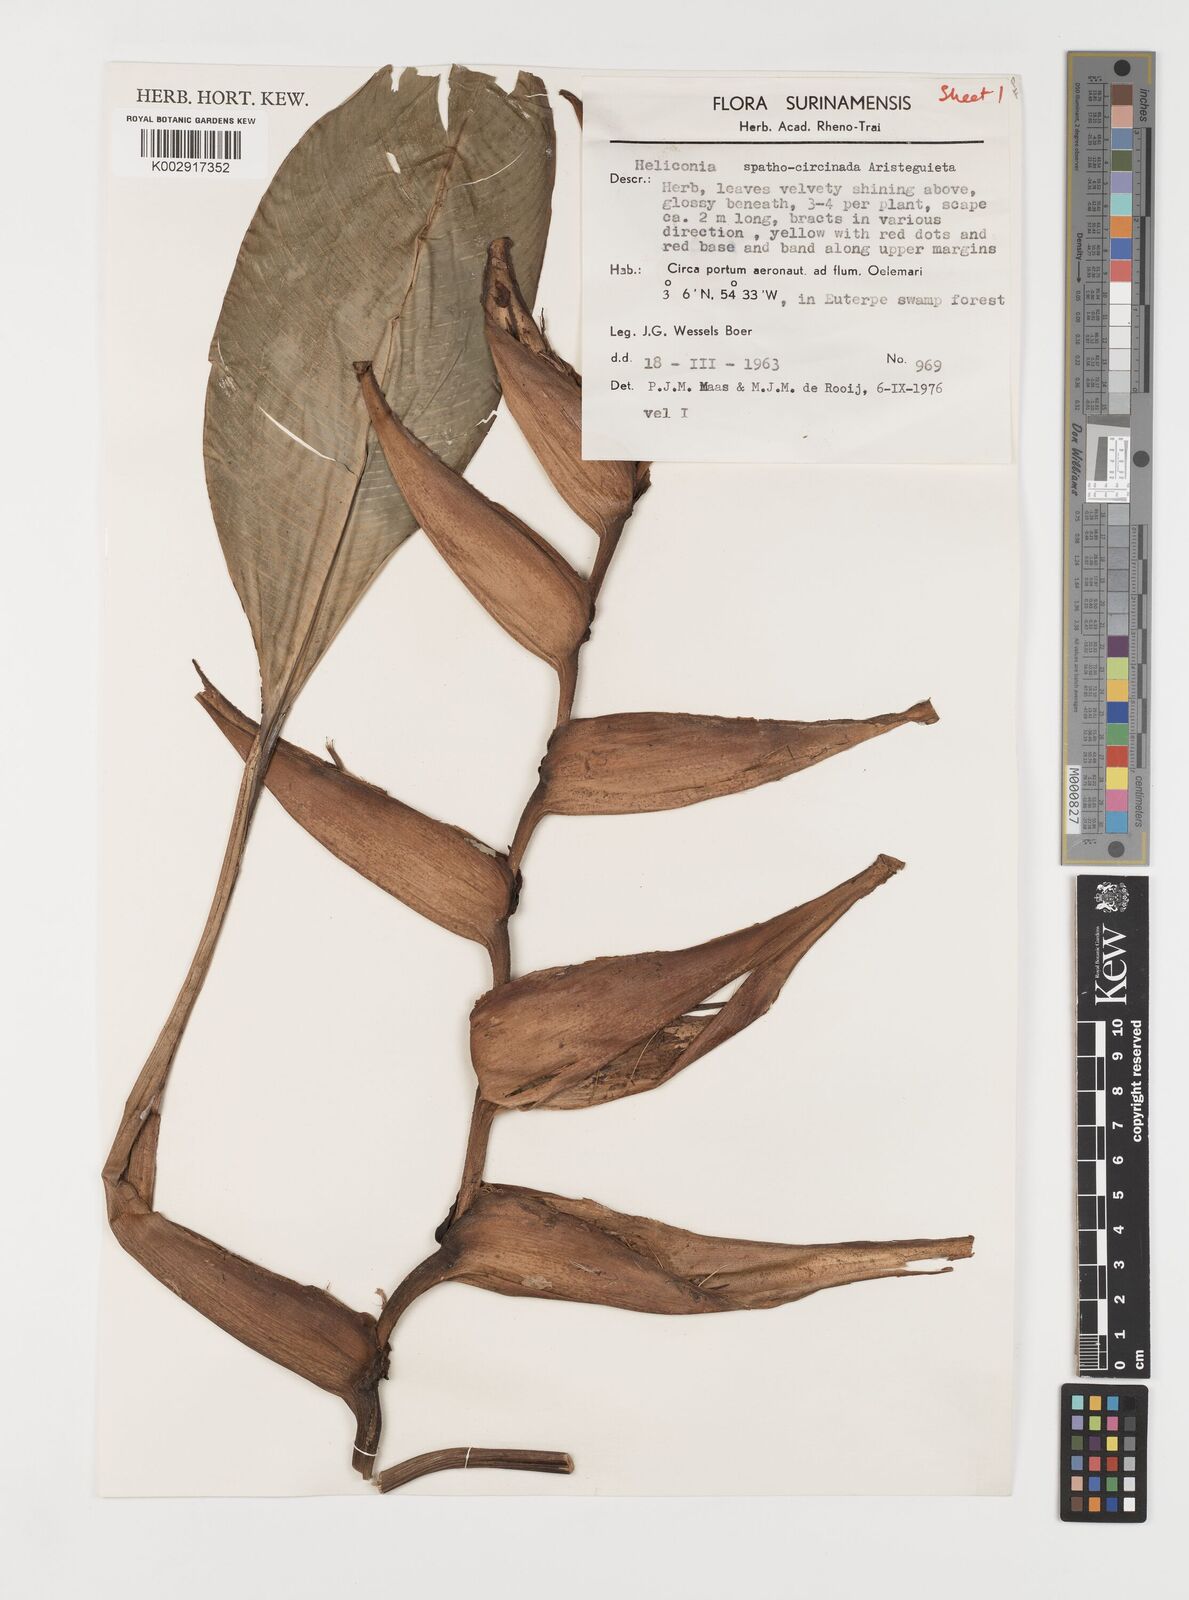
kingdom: Plantae
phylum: Tracheophyta
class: Liliopsida
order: Zingiberales
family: Heliconiaceae
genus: Heliconia
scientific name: Heliconia spathocircinata
